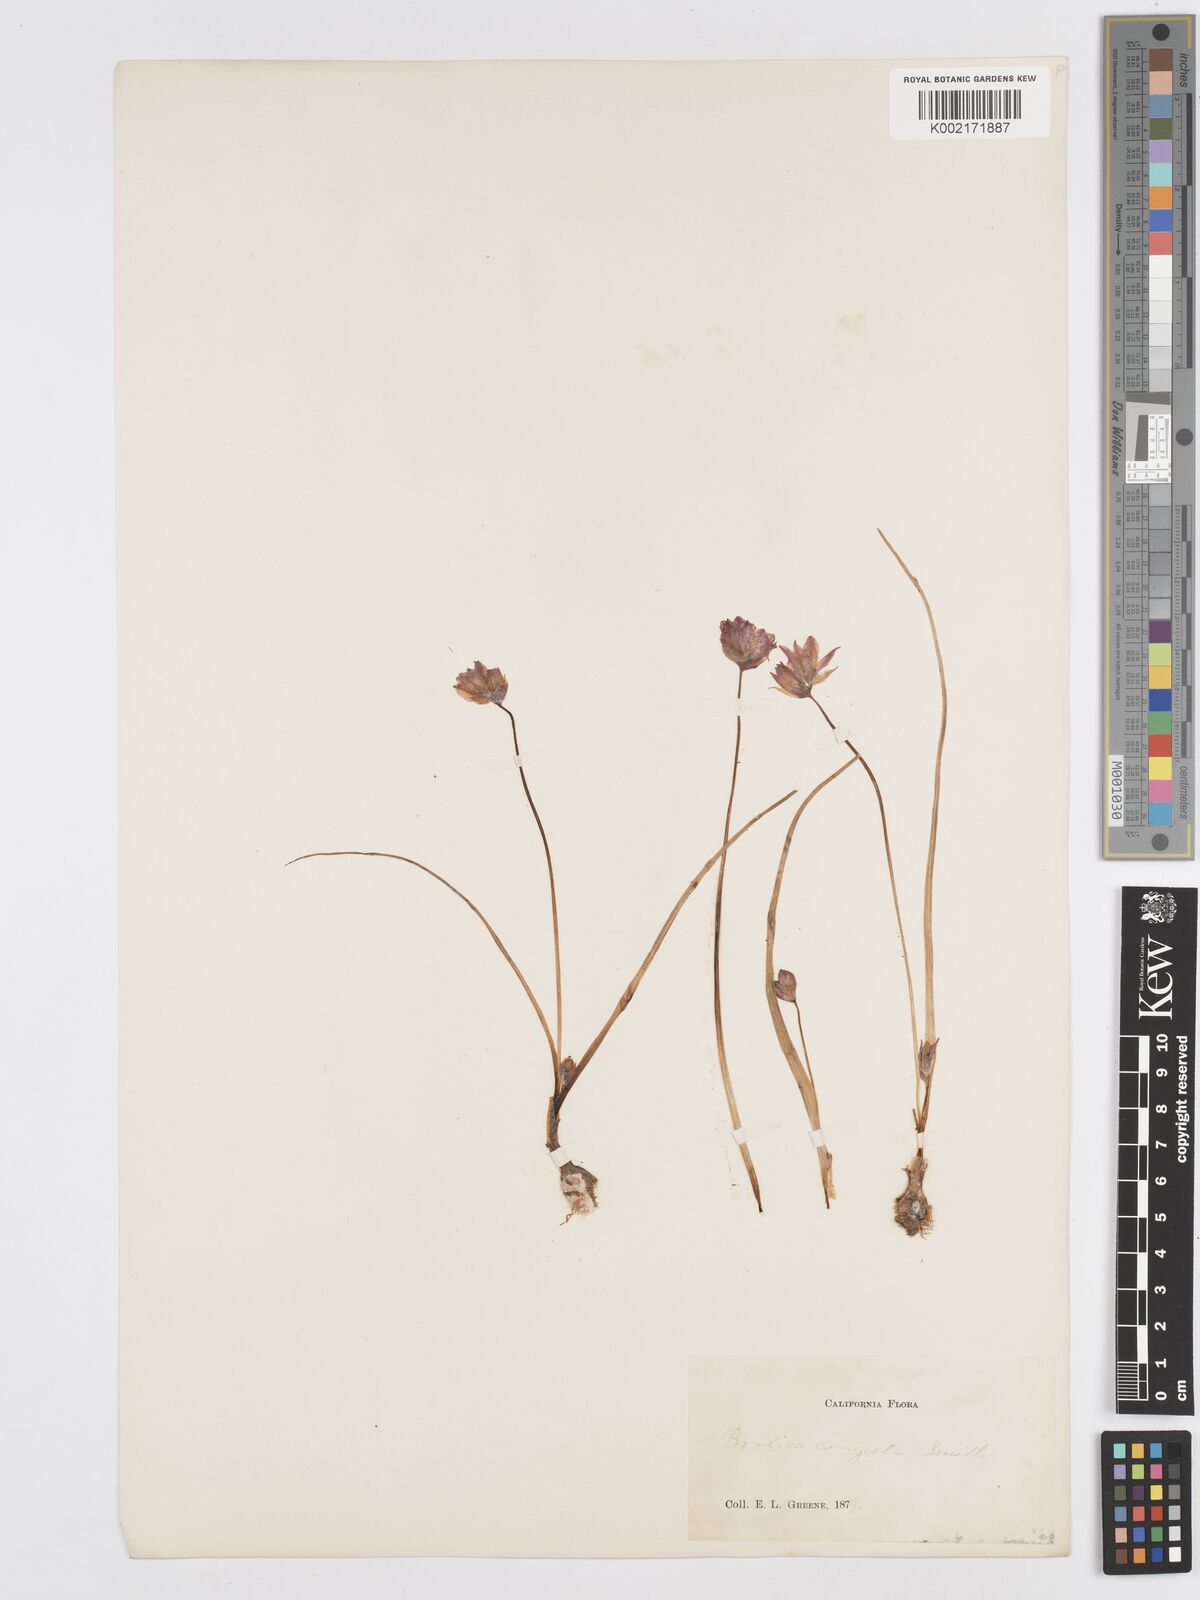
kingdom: Plantae
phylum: Tracheophyta
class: Liliopsida
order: Asparagales
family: Asparagaceae
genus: Dichelostemma
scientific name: Dichelostemma congestum
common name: Fork-tooth ookow
